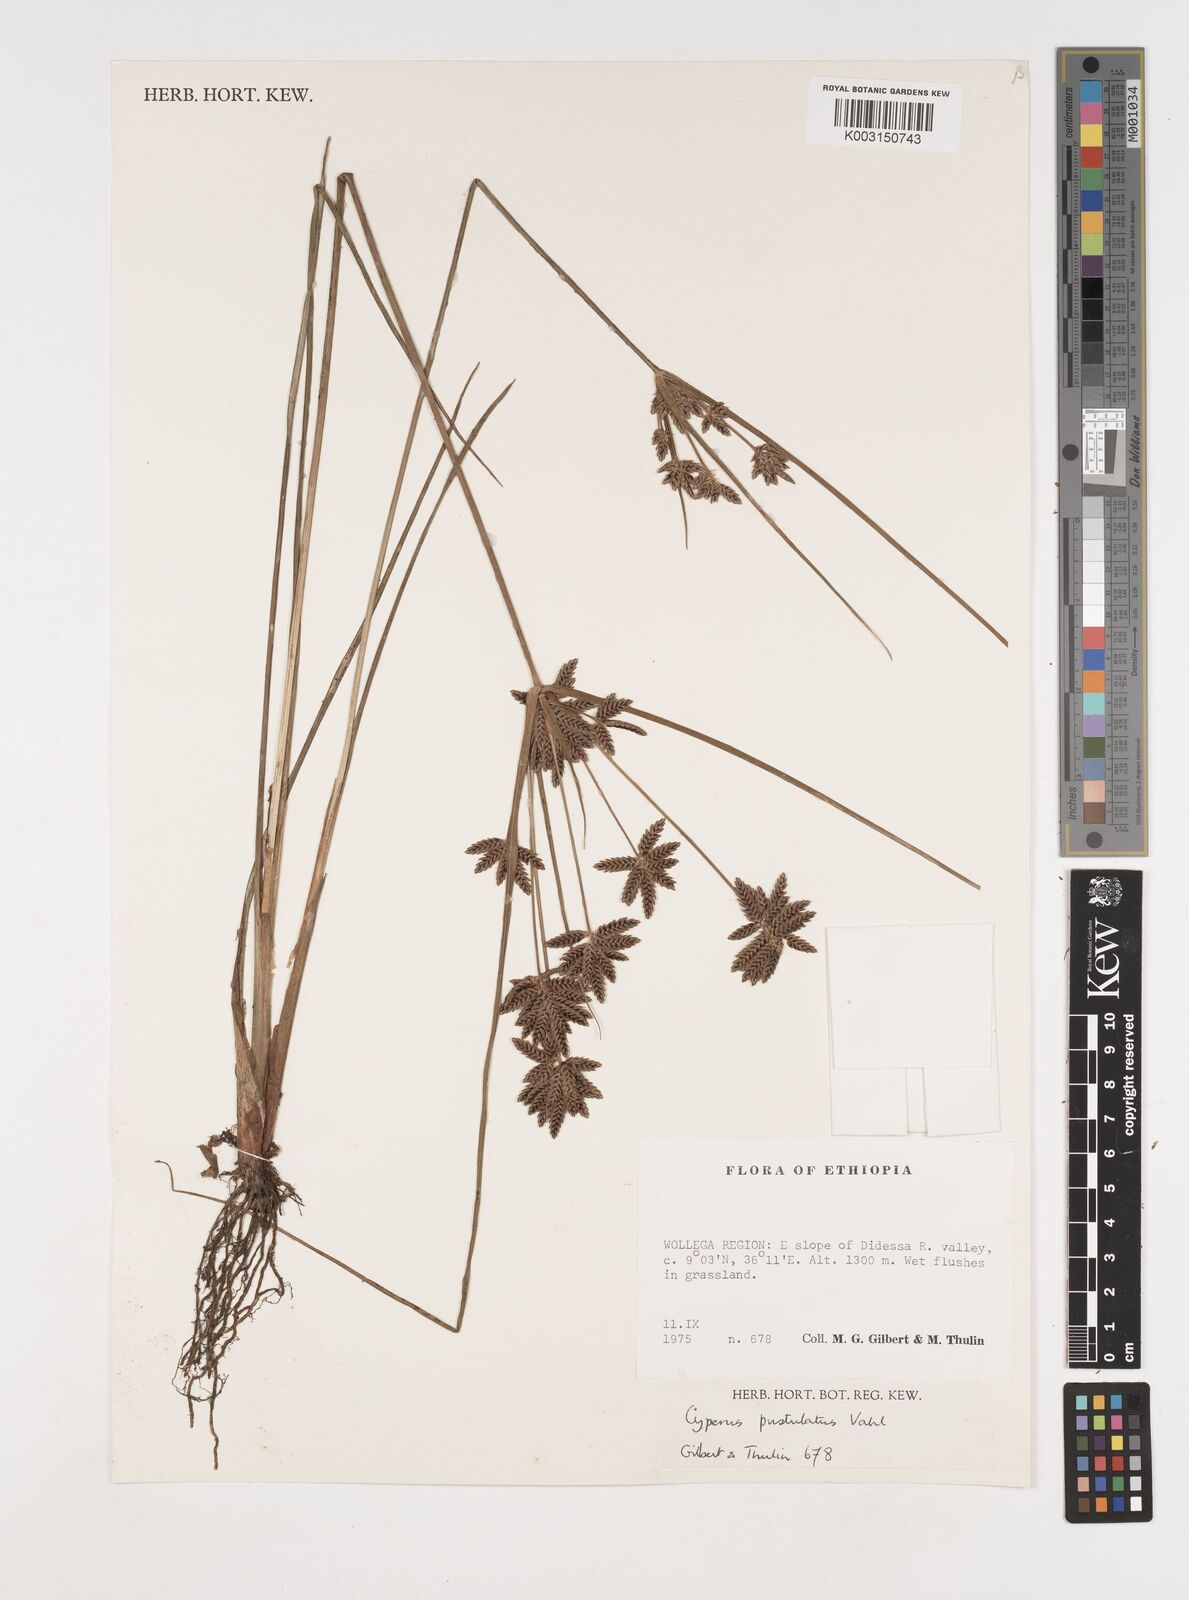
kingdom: Plantae
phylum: Tracheophyta
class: Liliopsida
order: Poales
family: Cyperaceae
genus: Cyperus
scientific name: Cyperus pustulatus
